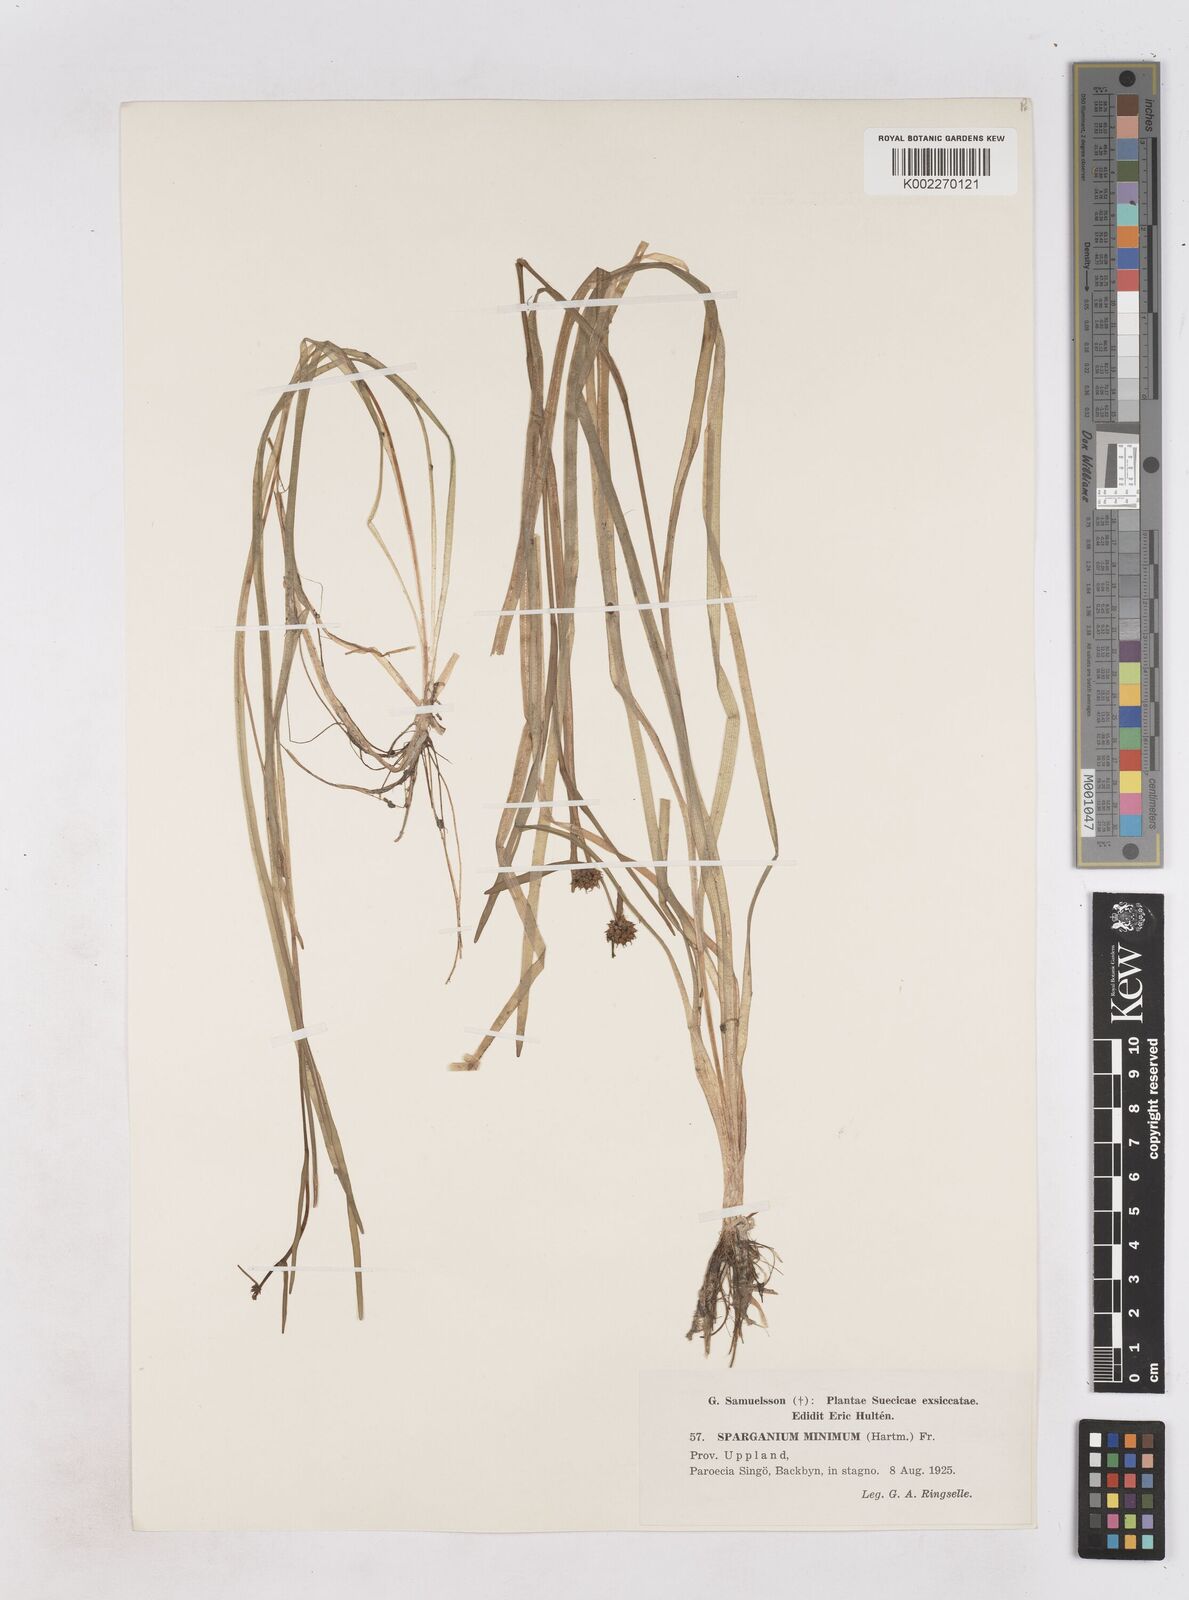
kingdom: Plantae
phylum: Tracheophyta
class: Liliopsida
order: Poales
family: Typhaceae
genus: Sparganium
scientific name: Sparganium natans
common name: Least bur-reed
